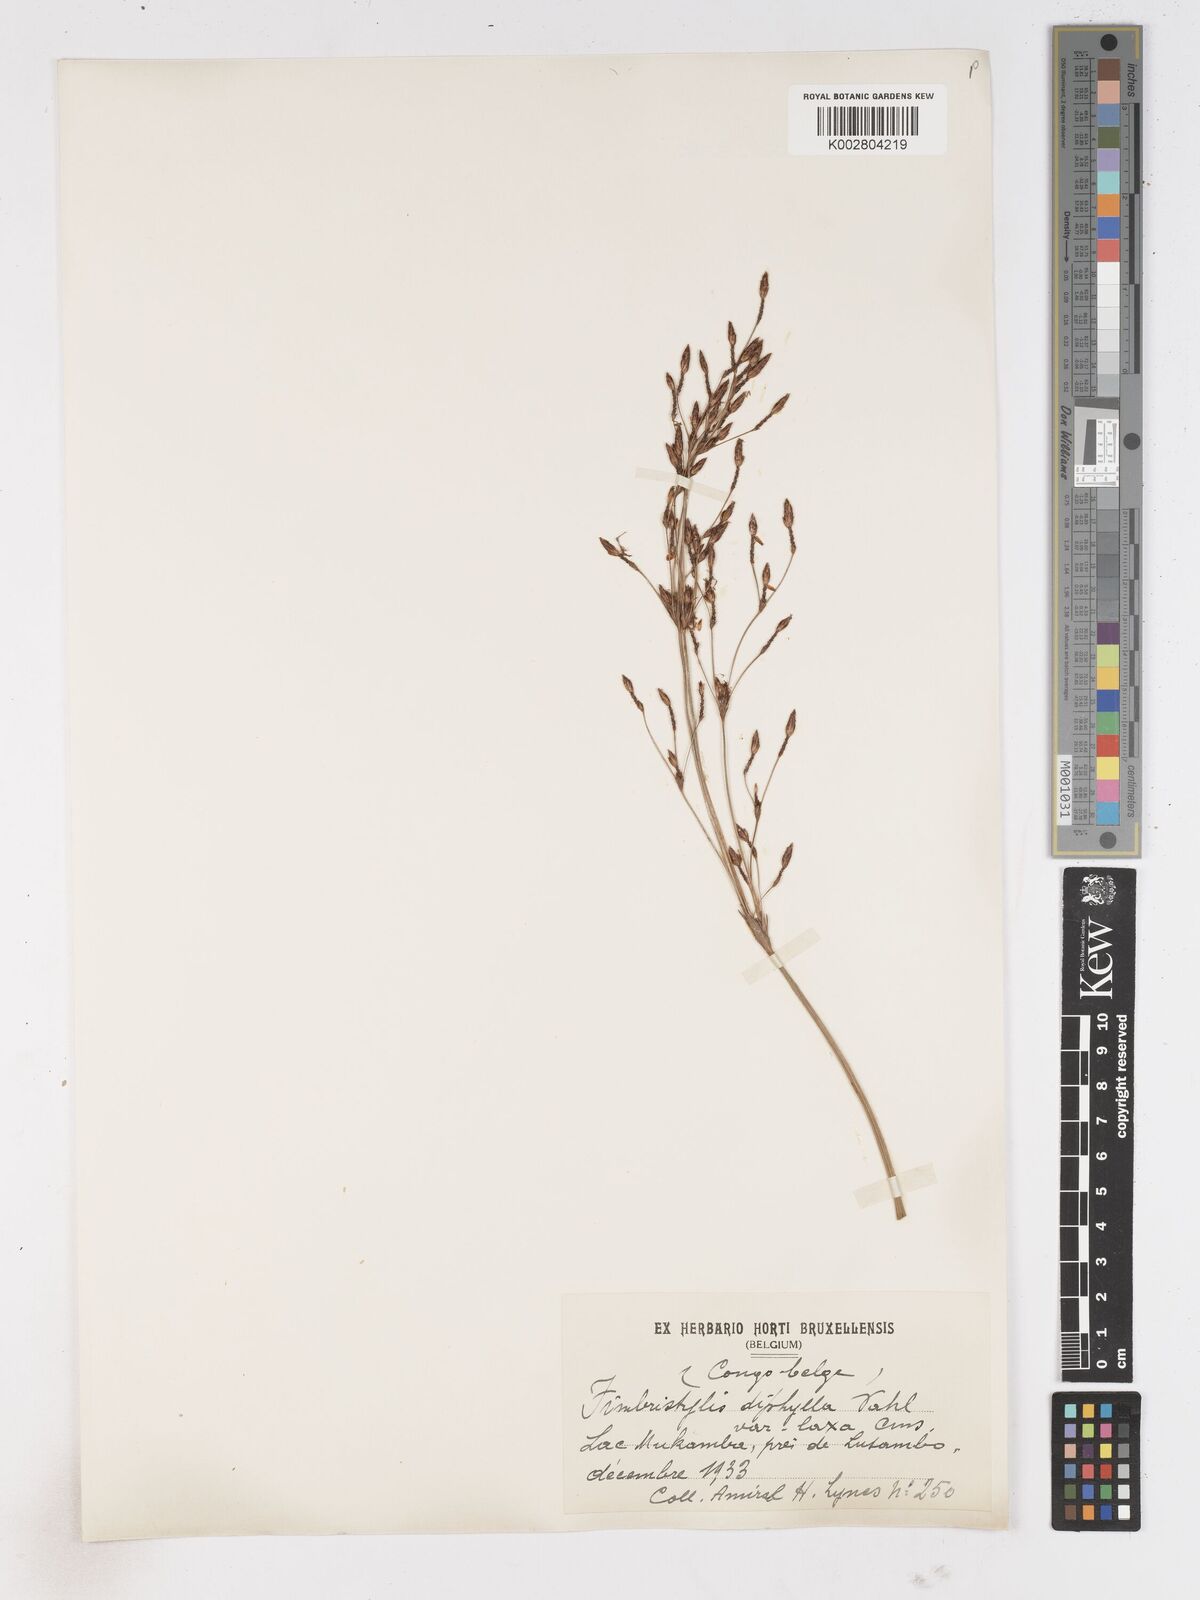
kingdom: Plantae
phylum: Tracheophyta
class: Liliopsida
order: Poales
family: Cyperaceae
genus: Fimbristylis
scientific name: Fimbristylis bivalvis
